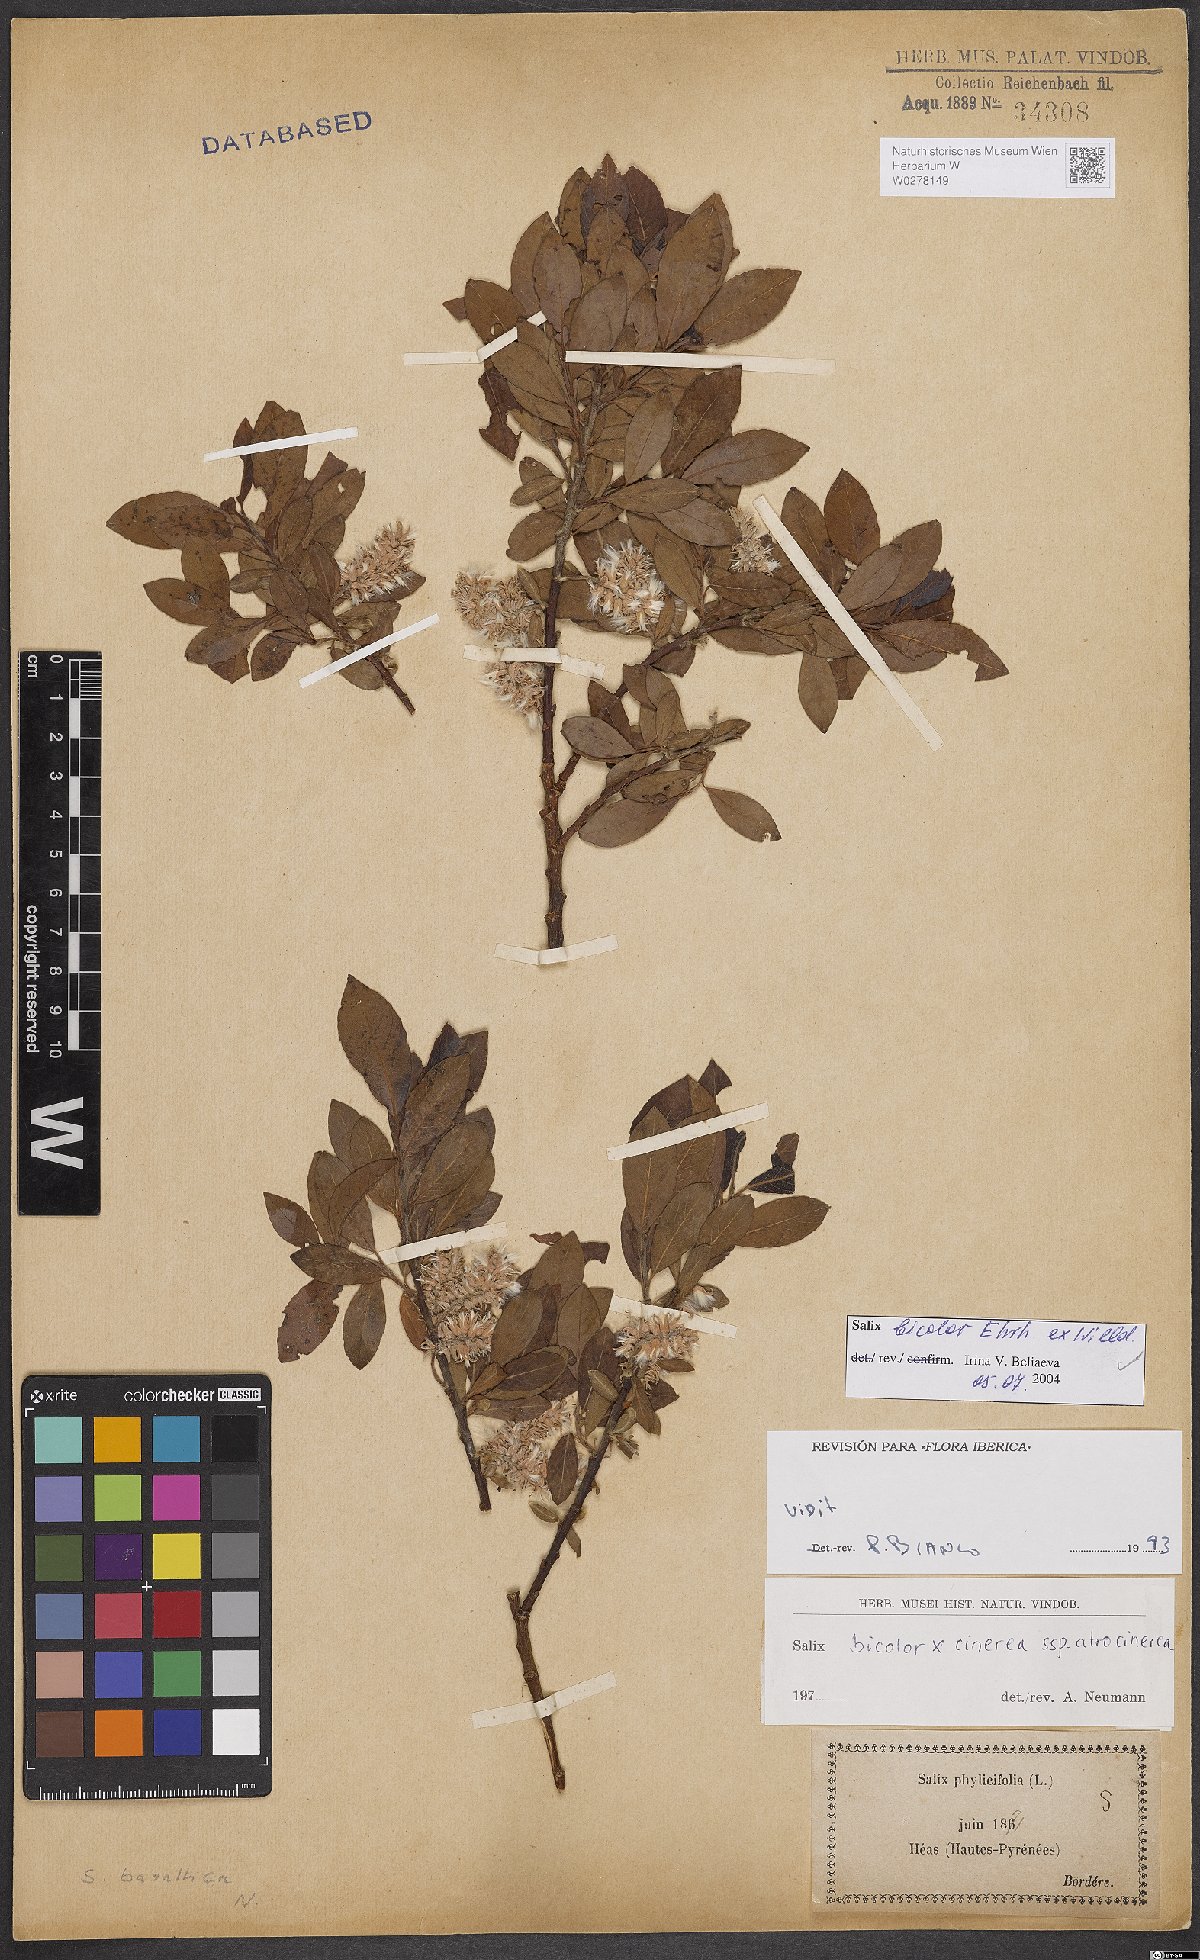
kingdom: Plantae
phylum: Tracheophyta
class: Magnoliopsida
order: Malpighiales
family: Salicaceae
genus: Salix
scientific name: Salix bicolor
